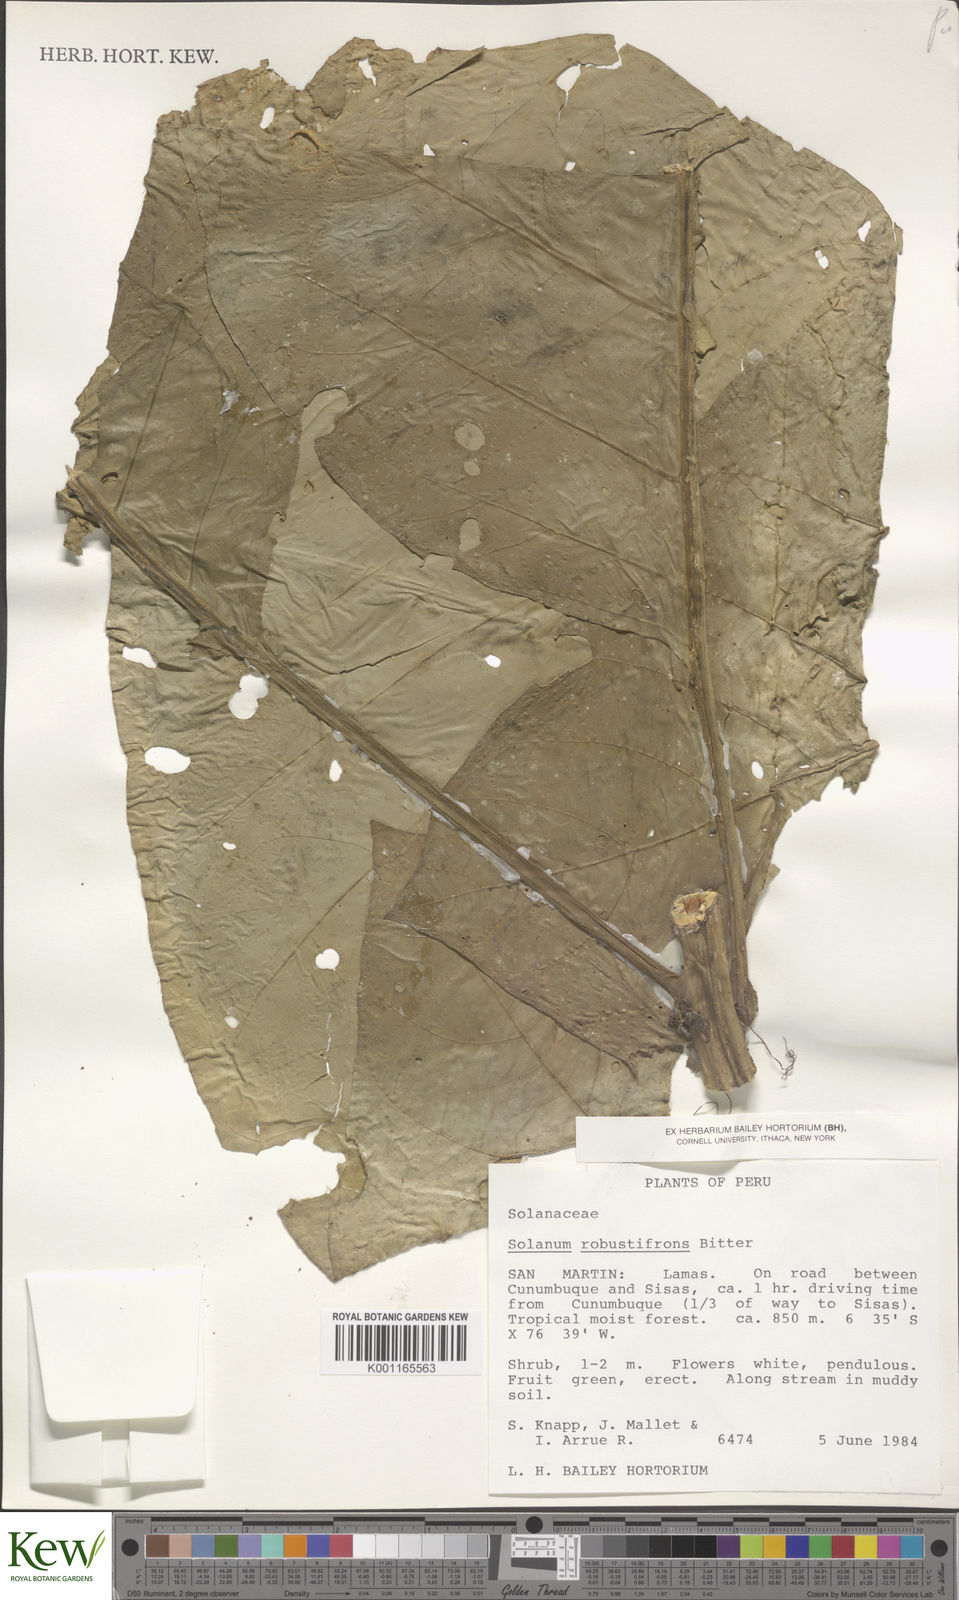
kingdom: Plantae
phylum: Tracheophyta
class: Magnoliopsida
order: Solanales
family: Solanaceae
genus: Solanum
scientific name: Solanum robustifrons
